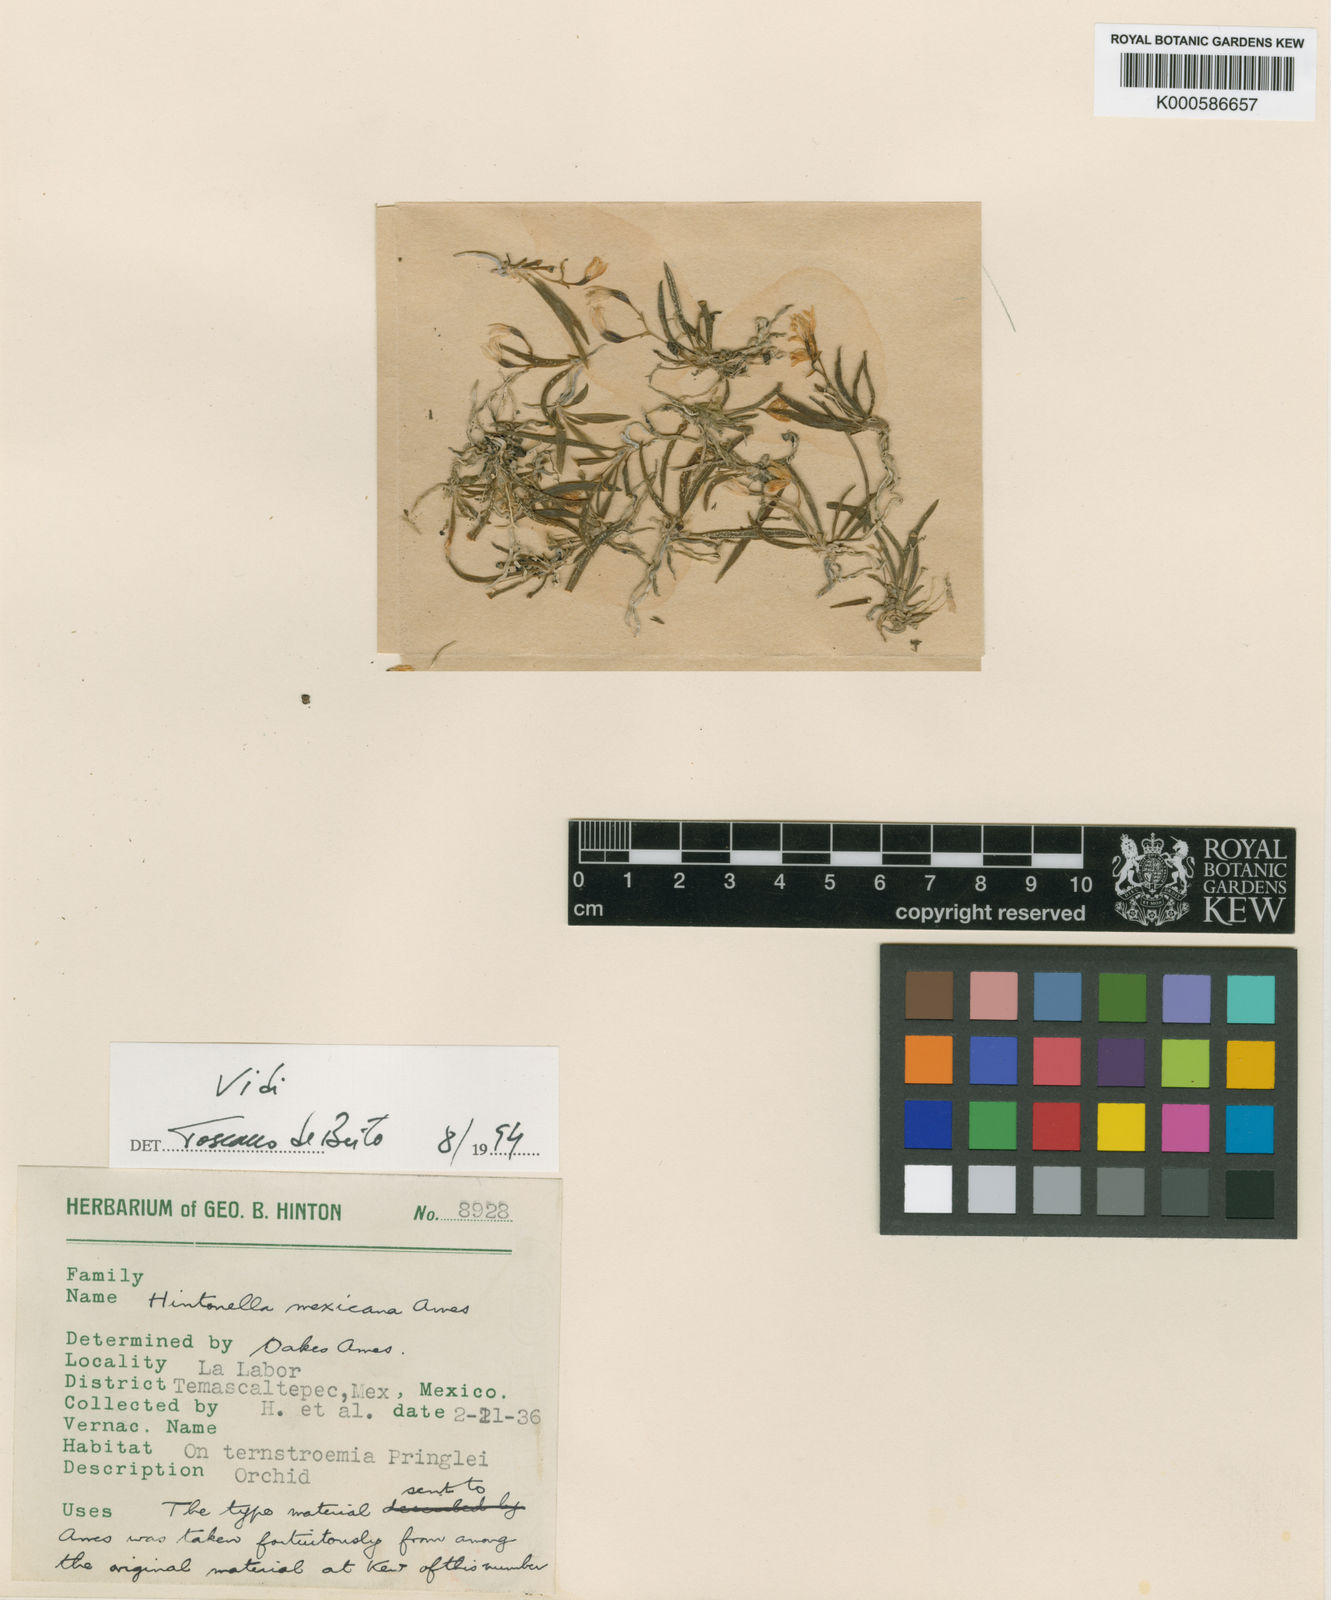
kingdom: Plantae
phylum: Tracheophyta
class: Liliopsida
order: Asparagales
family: Orchidaceae
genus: Hintonella
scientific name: Hintonella mexicana
